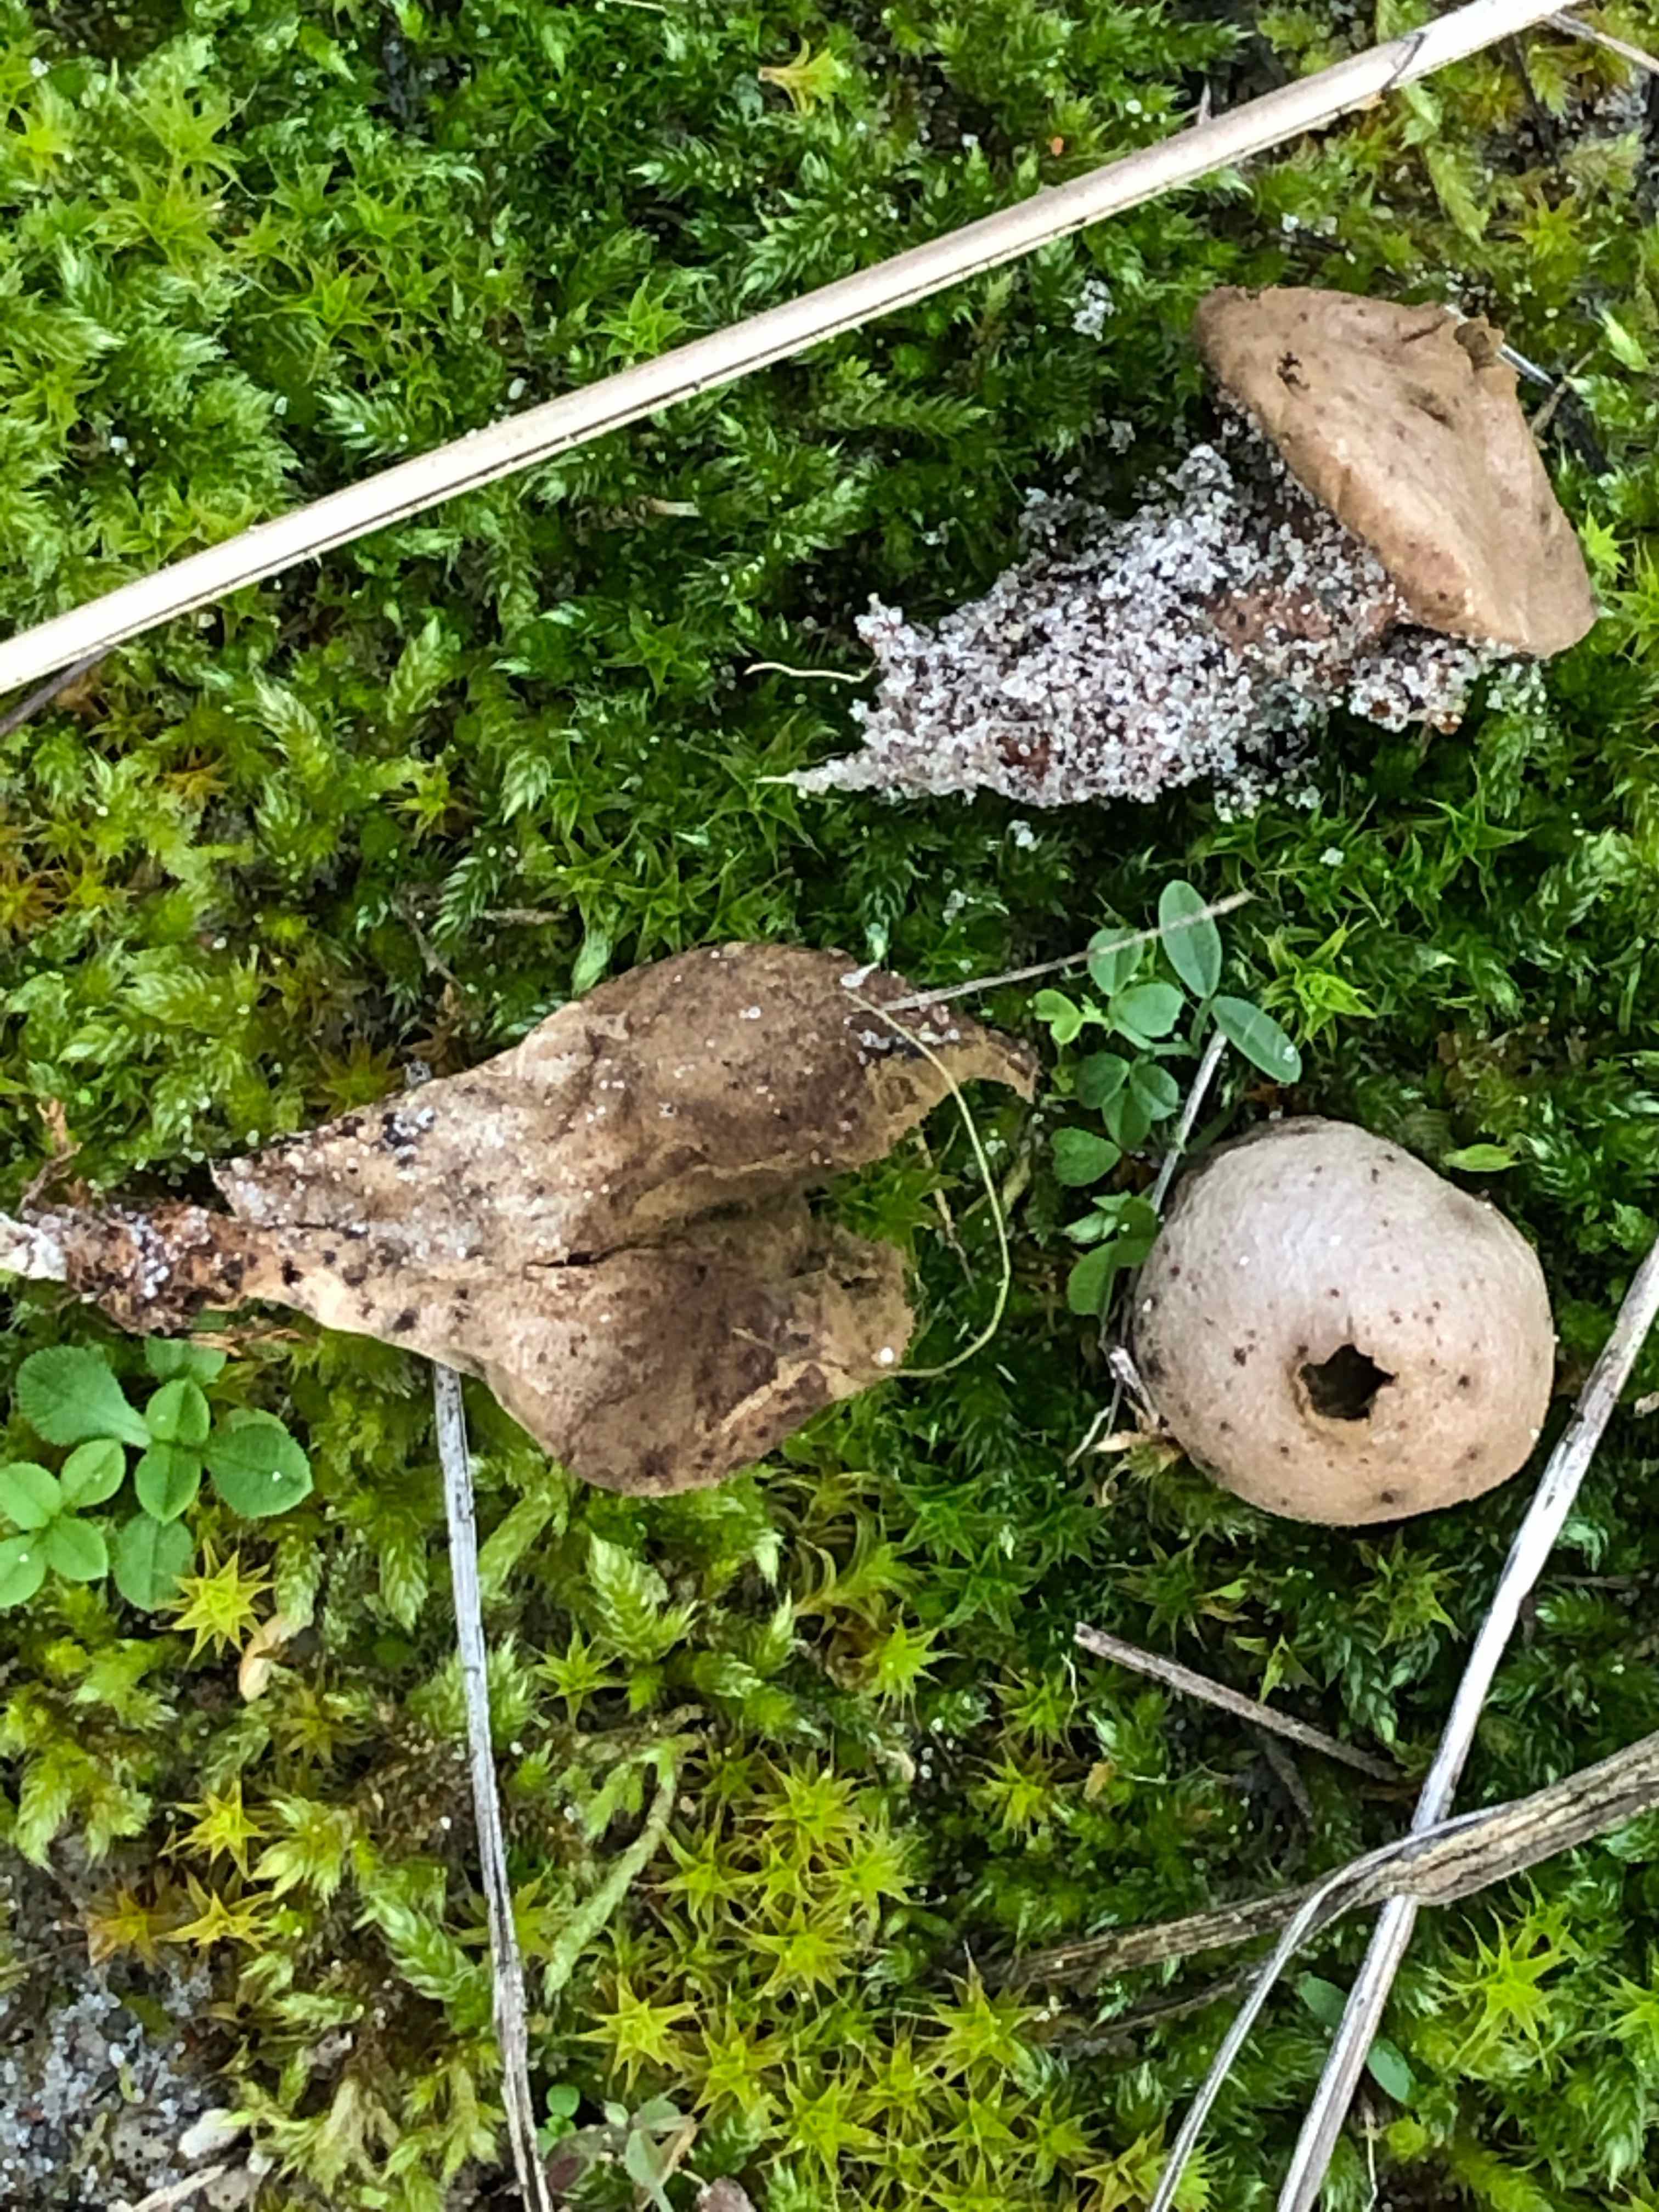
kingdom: Fungi
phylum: Basidiomycota
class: Agaricomycetes
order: Agaricales
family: Lycoperdaceae
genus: Lycoperdon
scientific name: Lycoperdon lividum
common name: mark-støvbold
